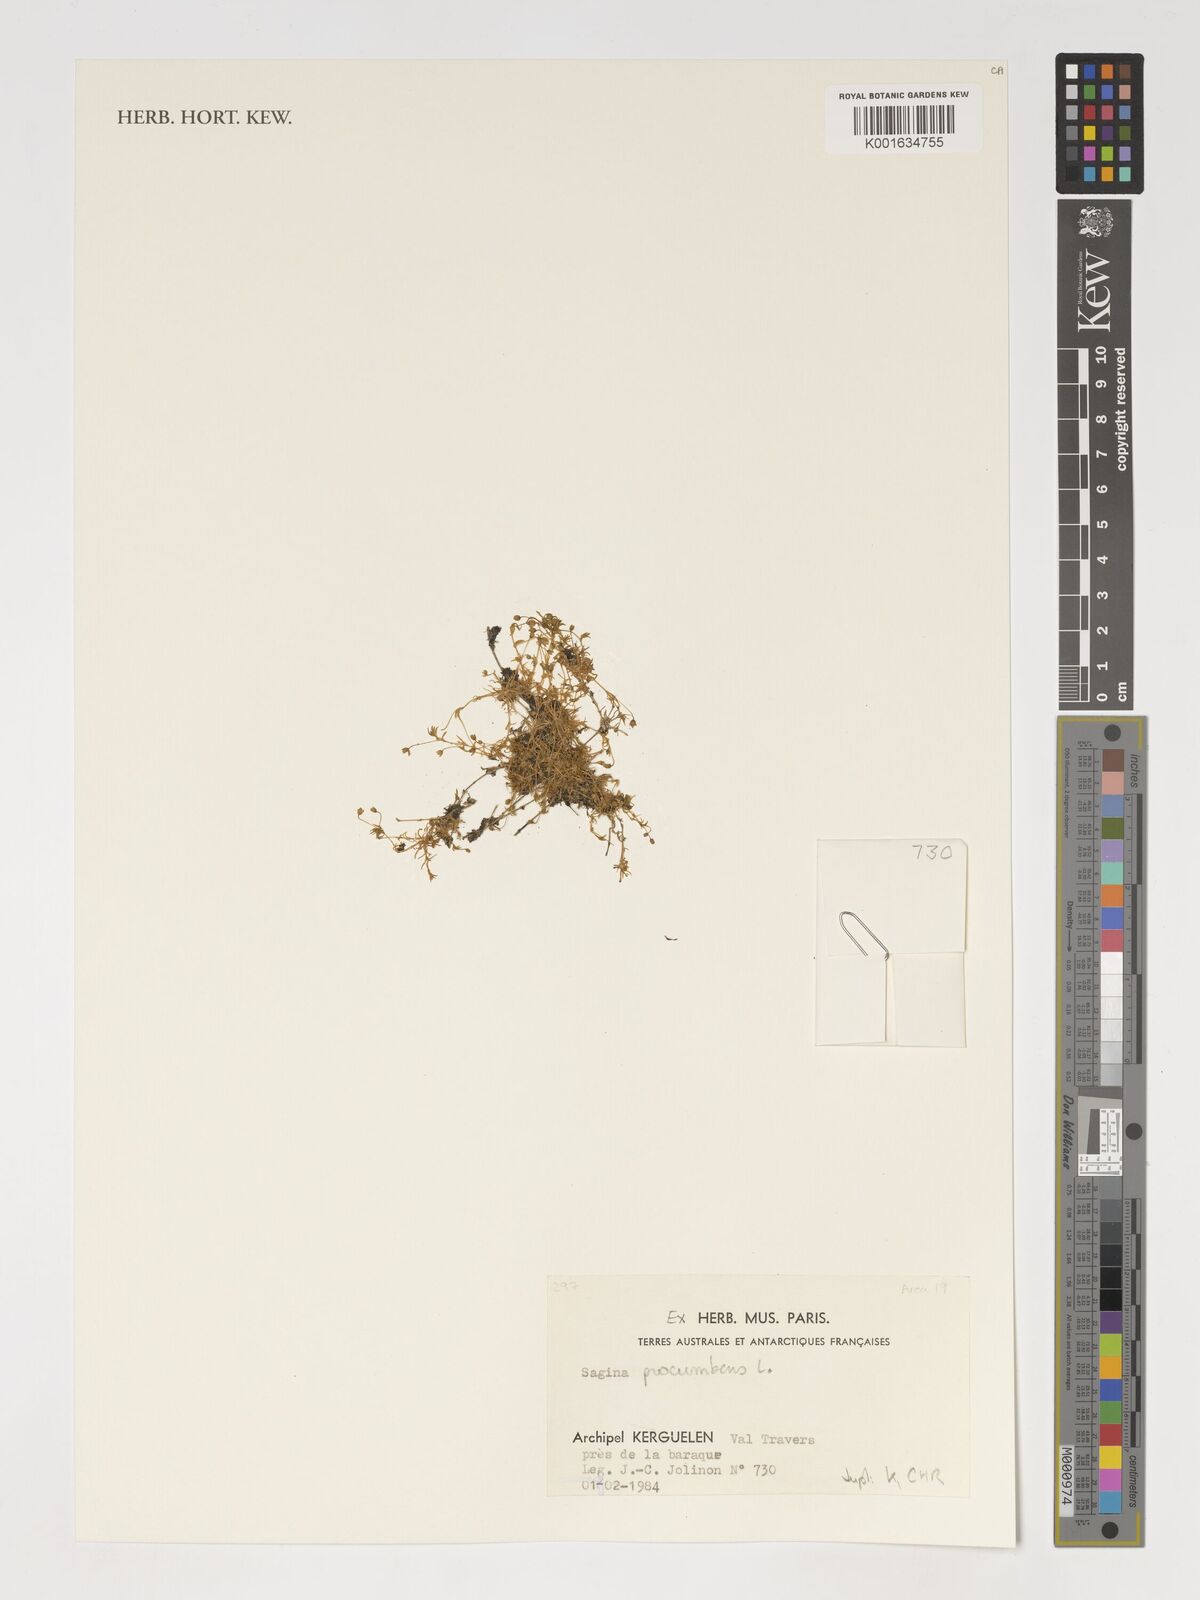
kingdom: Plantae
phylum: Tracheophyta
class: Magnoliopsida
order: Caryophyllales
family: Caryophyllaceae
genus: Sagina
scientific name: Sagina procumbens
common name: Procumbent pearlwort
